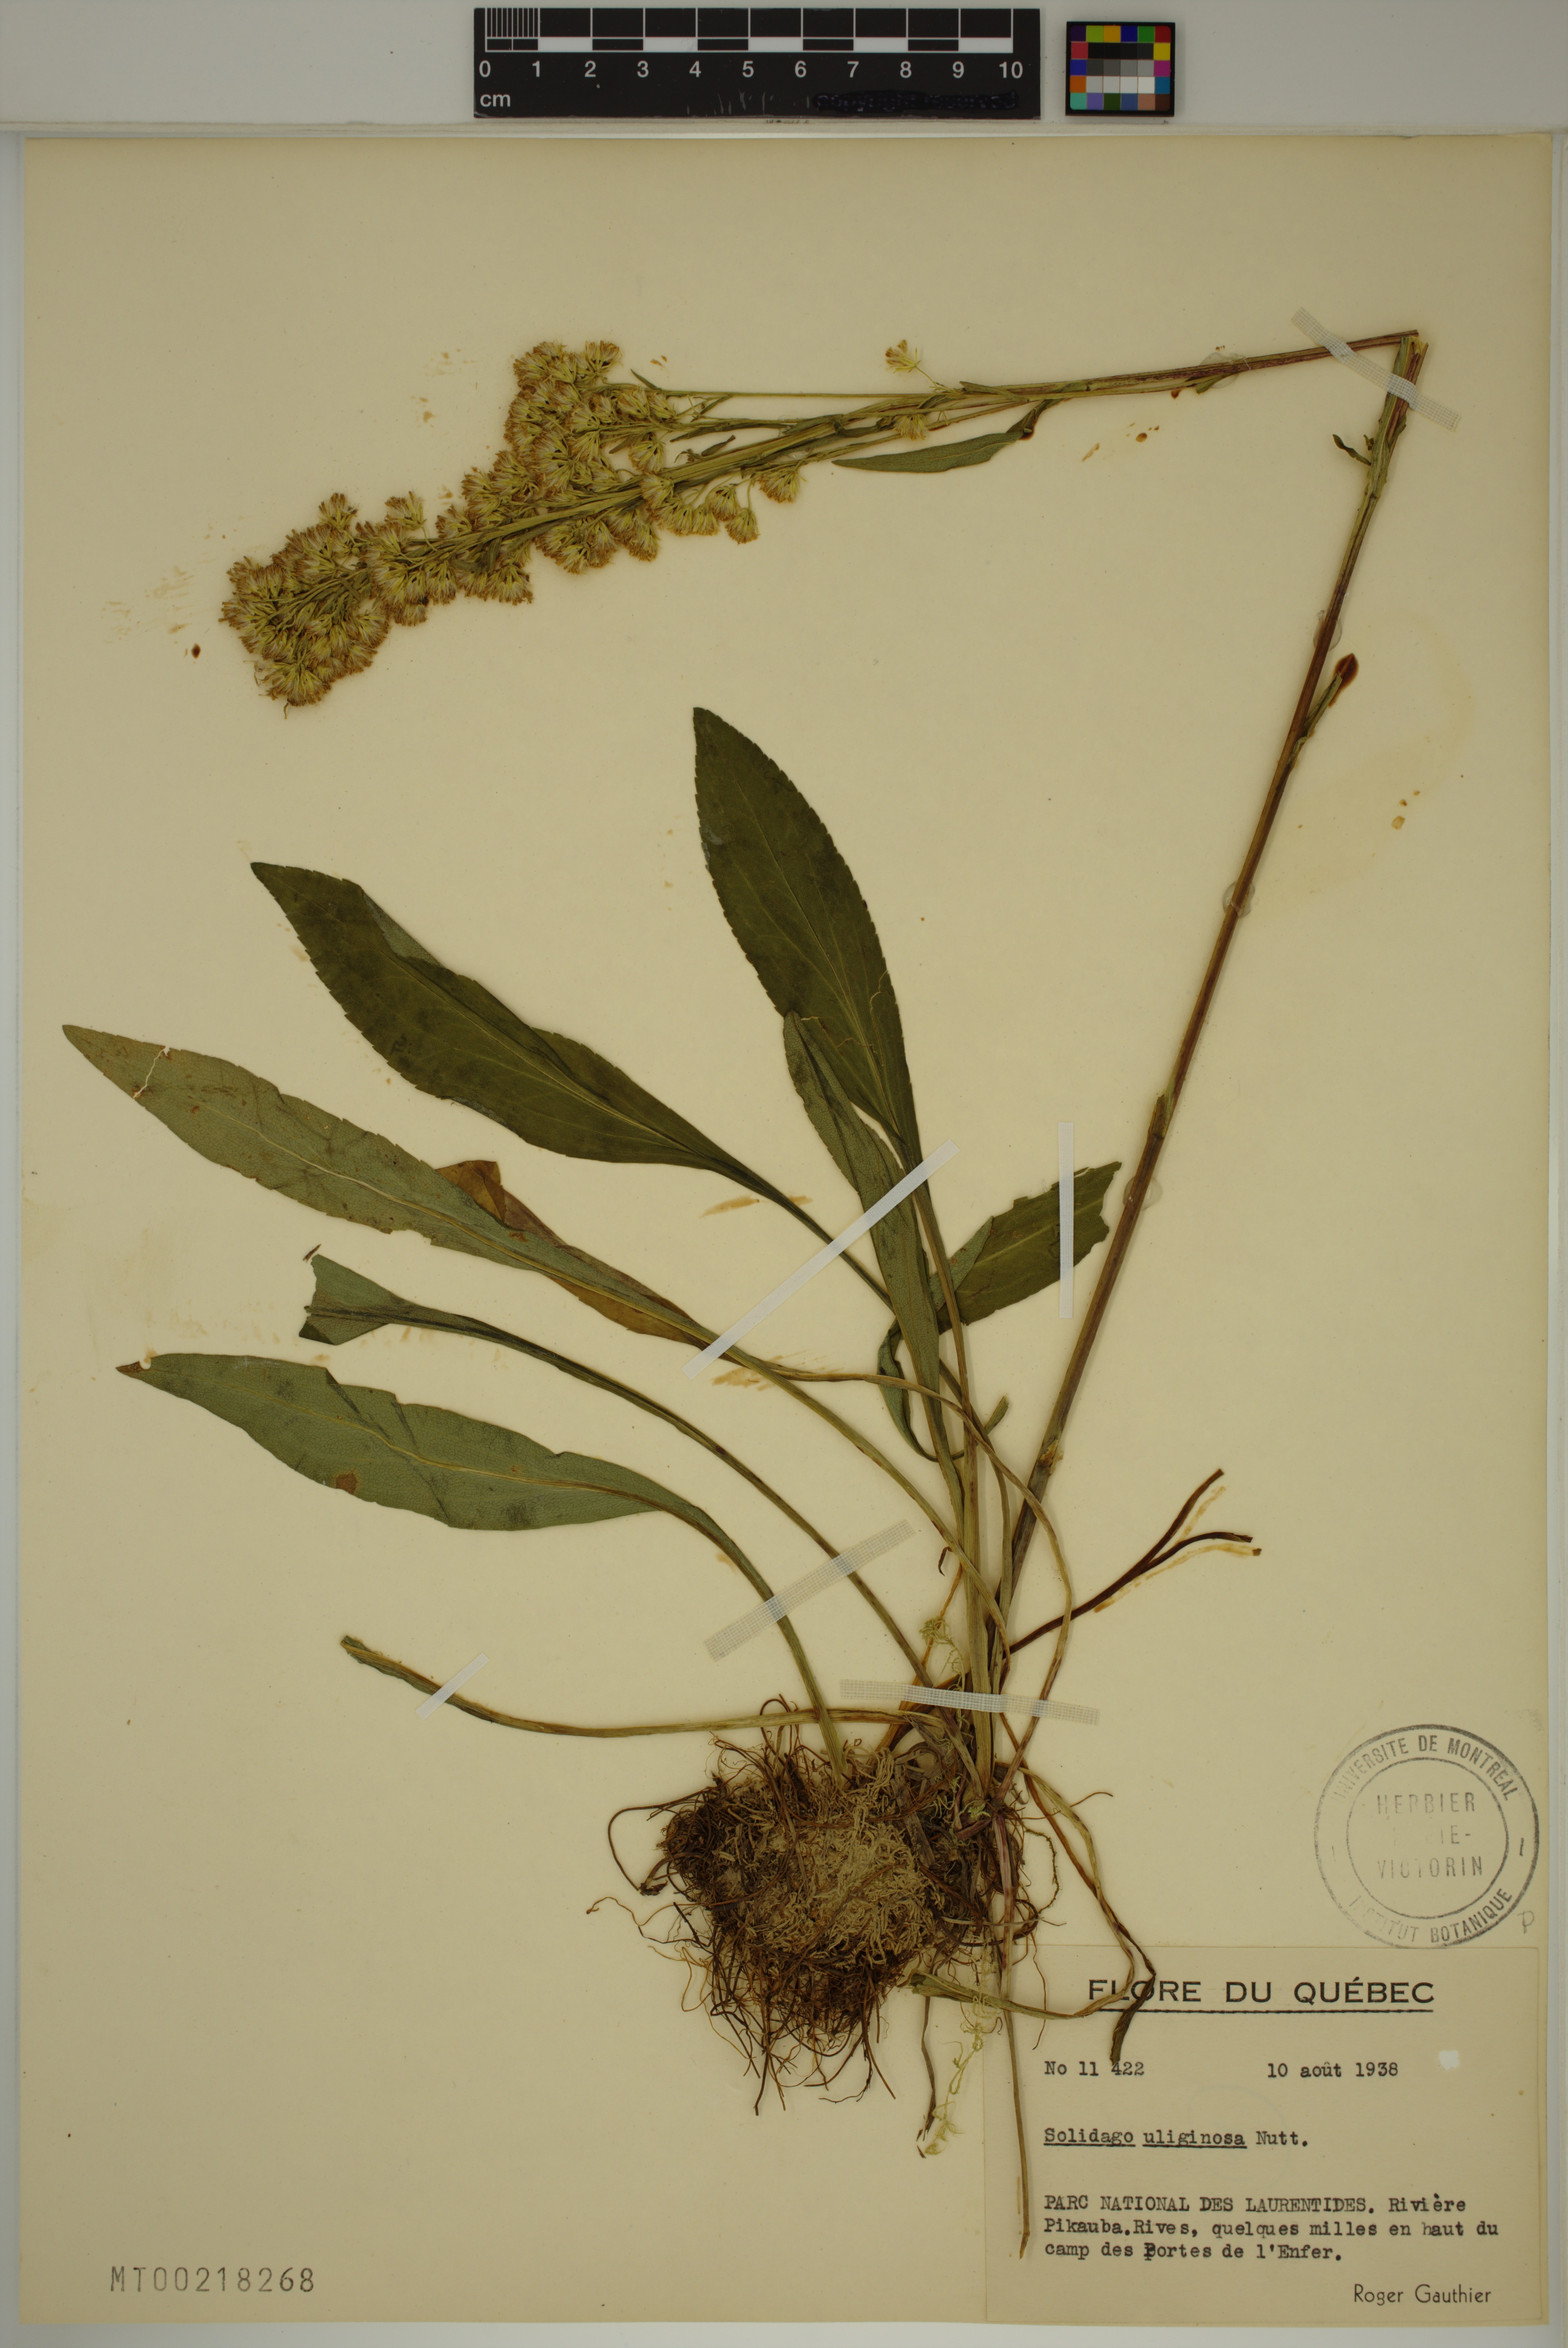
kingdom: Plantae
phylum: Tracheophyta
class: Magnoliopsida
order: Asterales
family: Asteraceae
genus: Solidago
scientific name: Solidago uliginosa
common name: Bog goldenrod
